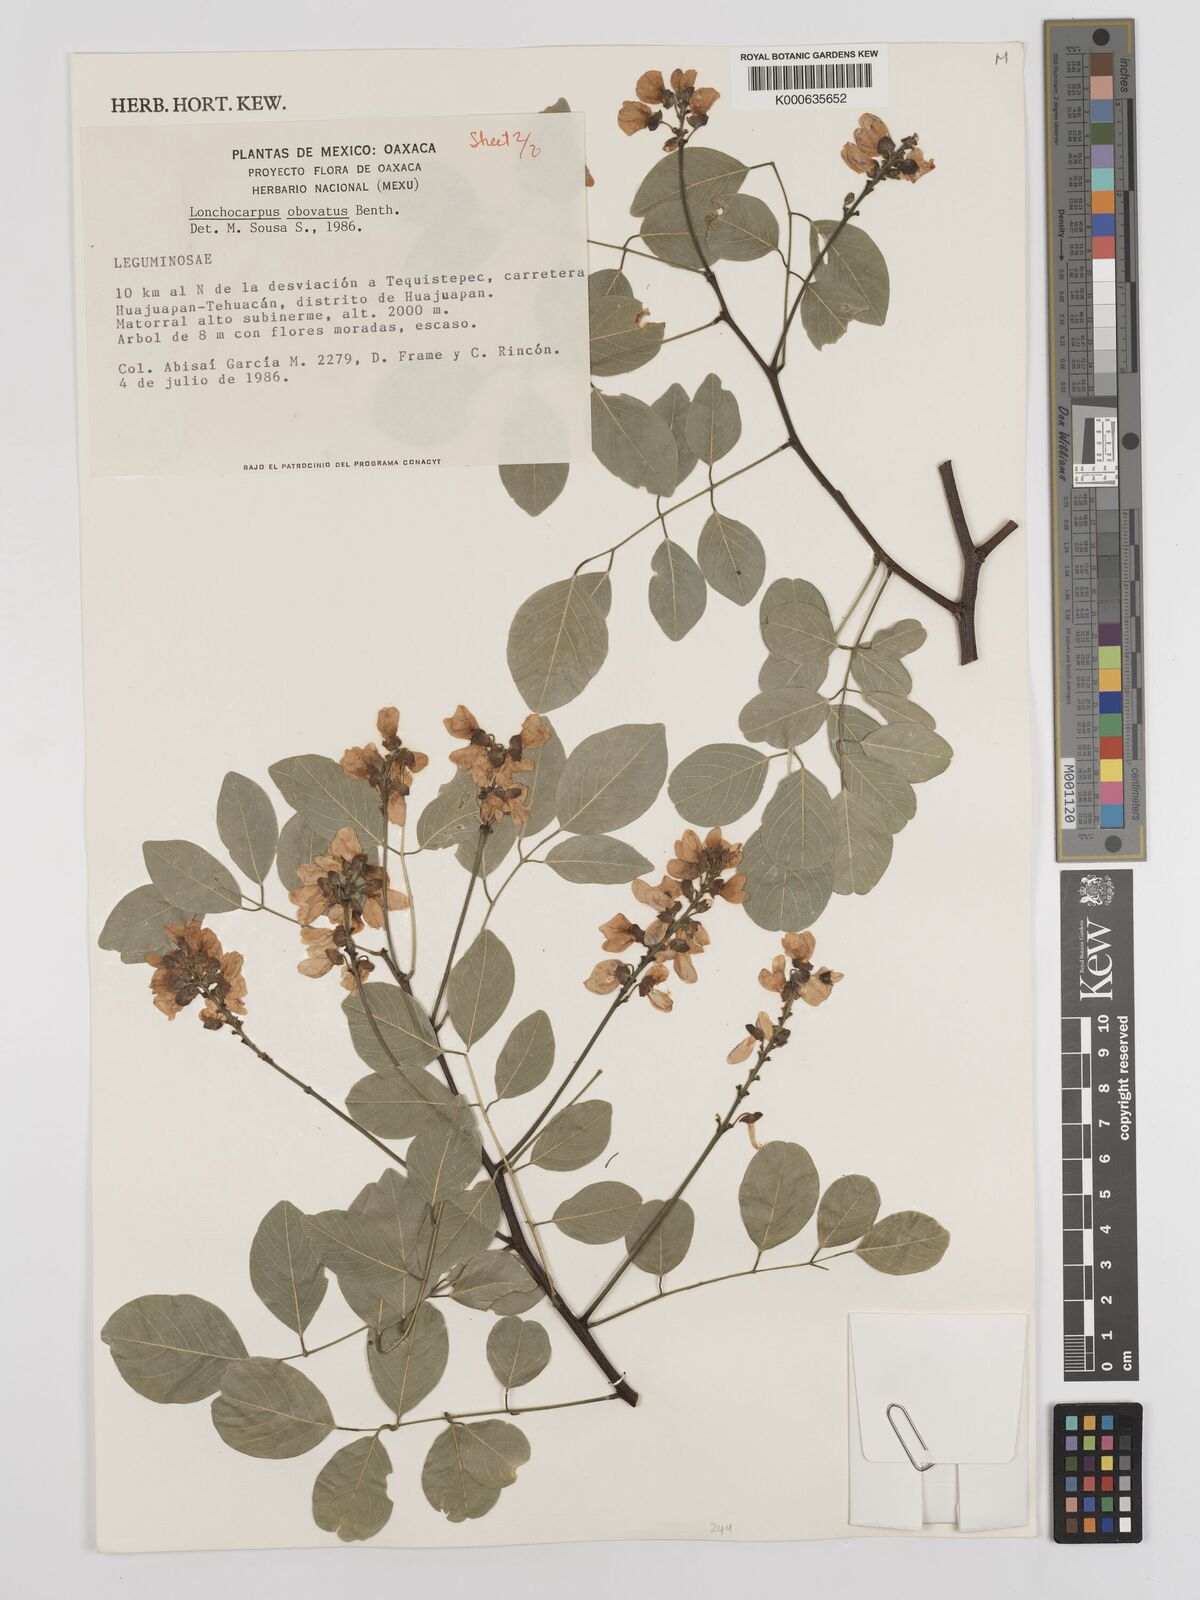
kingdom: Plantae
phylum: Tracheophyta
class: Magnoliopsida
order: Fabales
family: Fabaceae
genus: Lonchocarpus
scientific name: Lonchocarpus obovatus
